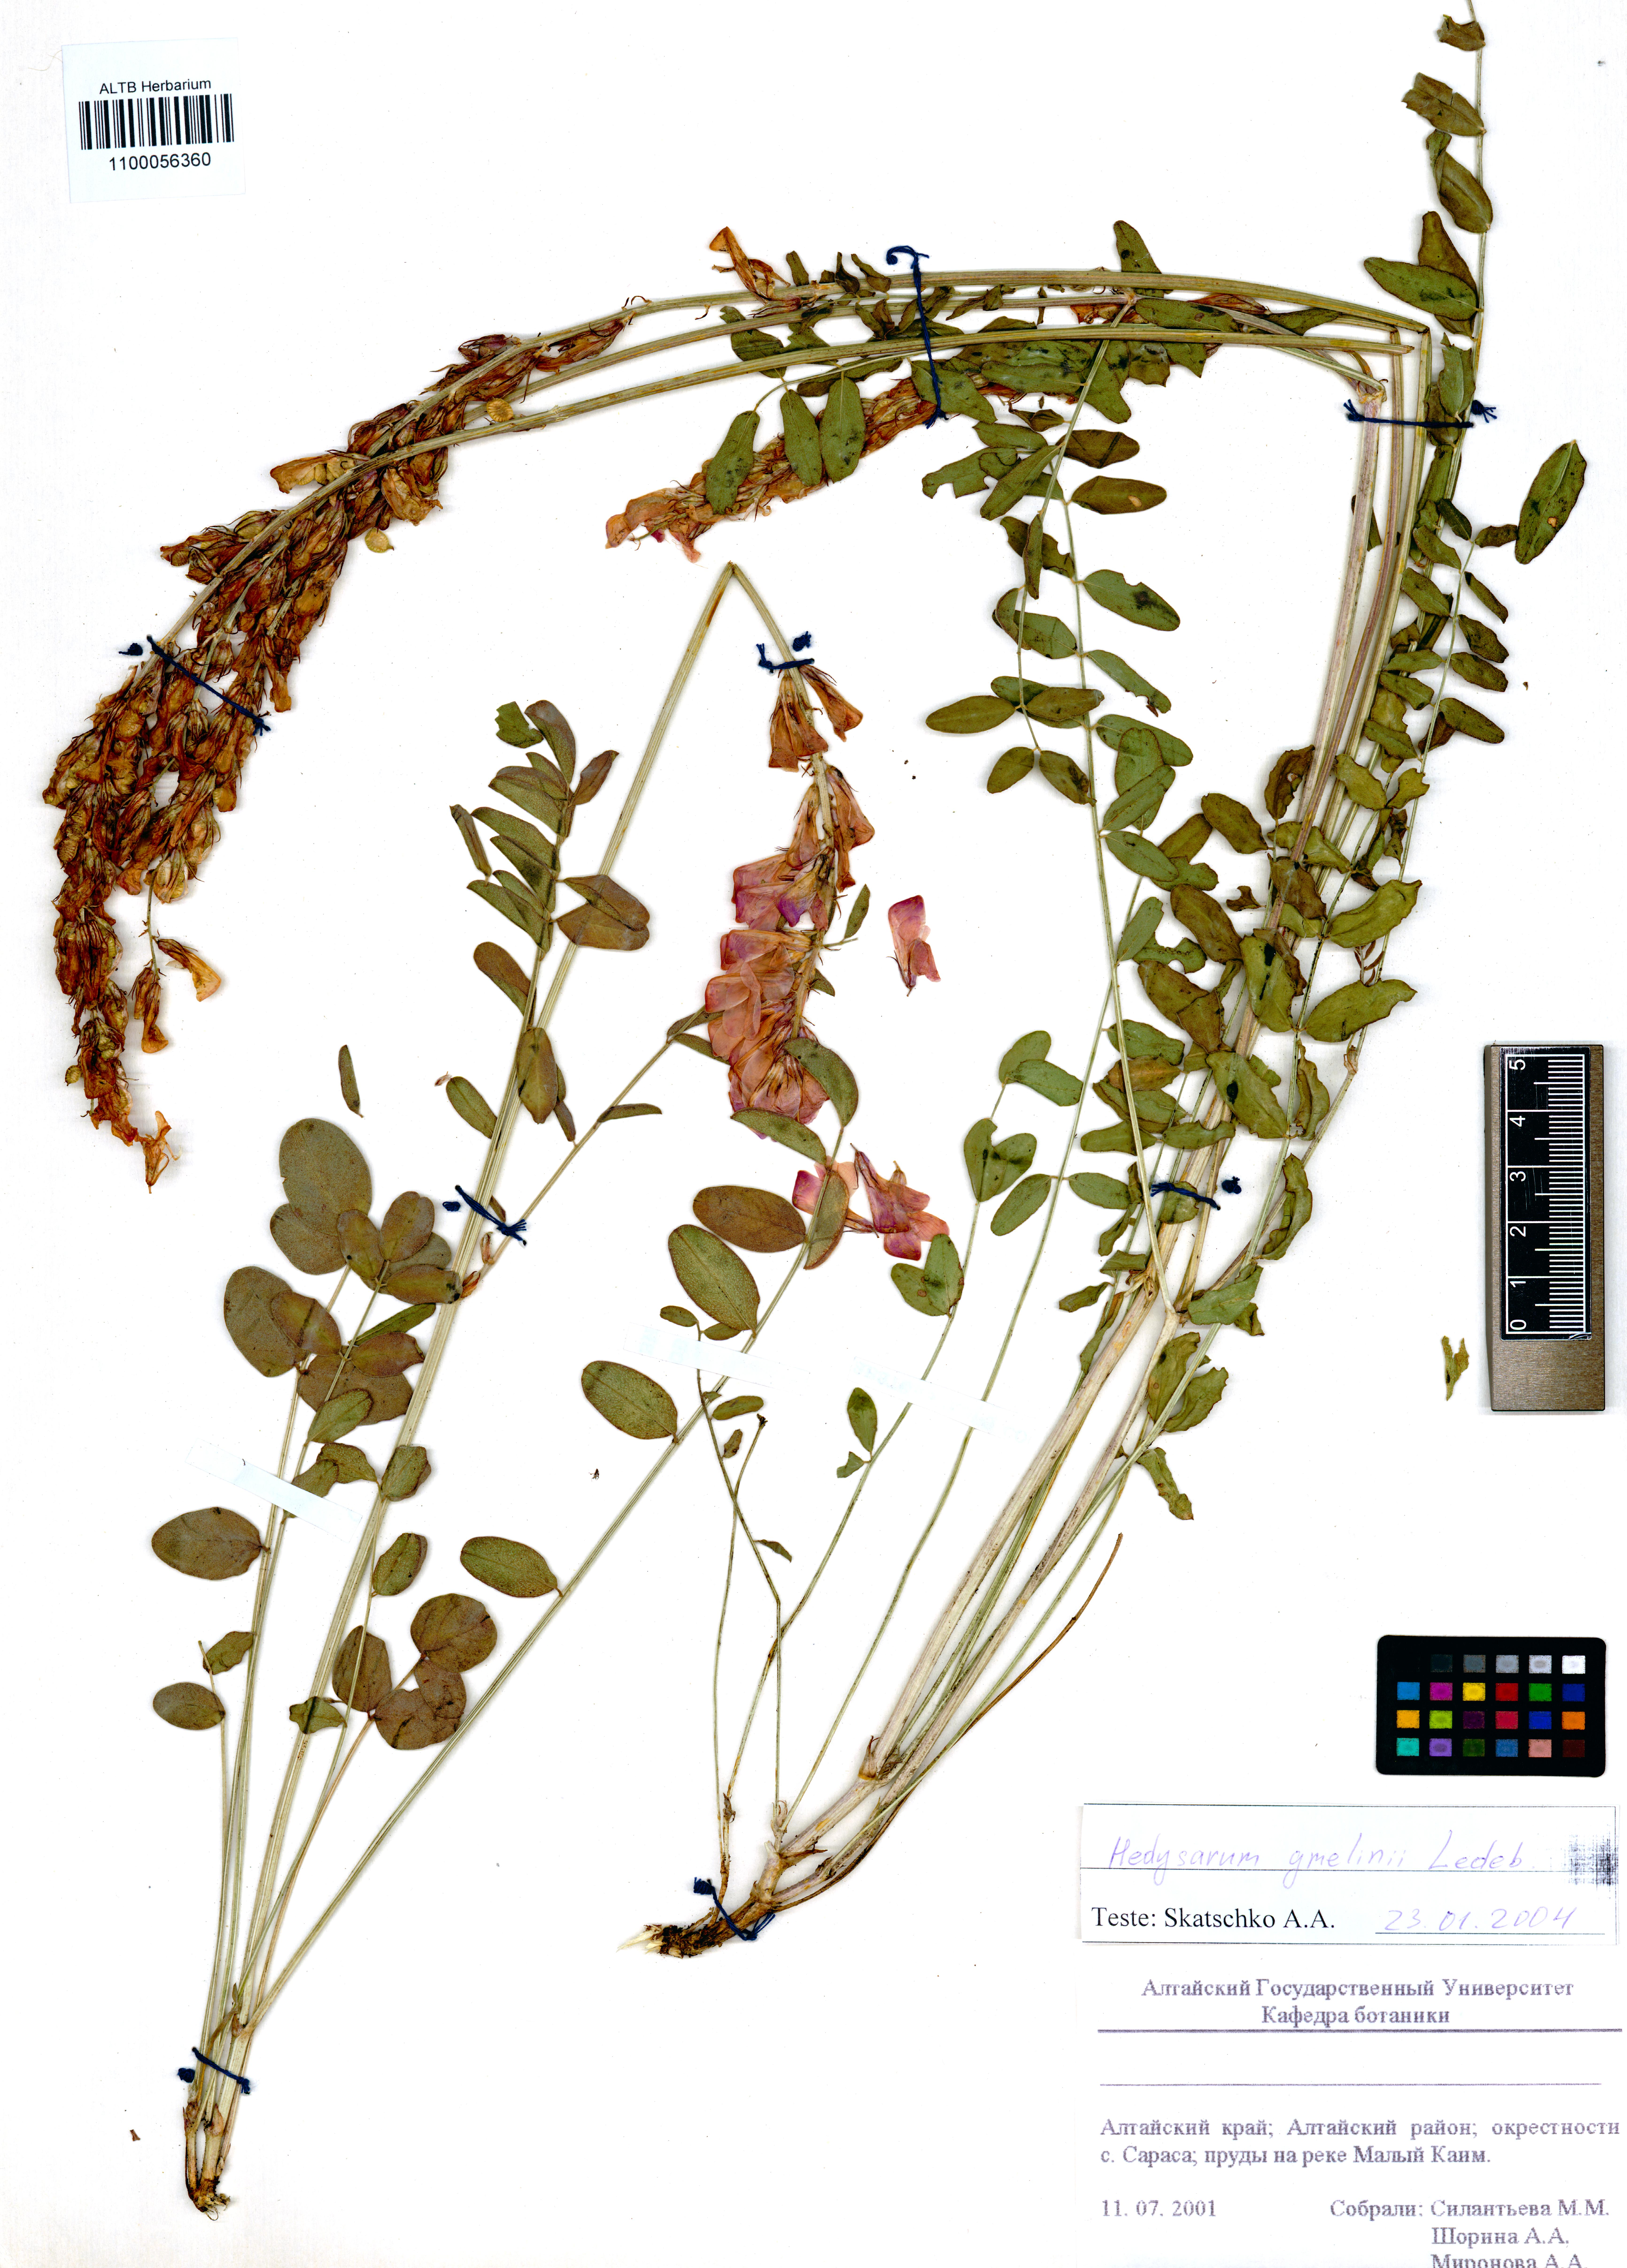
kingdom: Plantae
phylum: Tracheophyta
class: Magnoliopsida
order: Fabales
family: Fabaceae
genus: Hedysarum
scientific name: Hedysarum gmelinii
